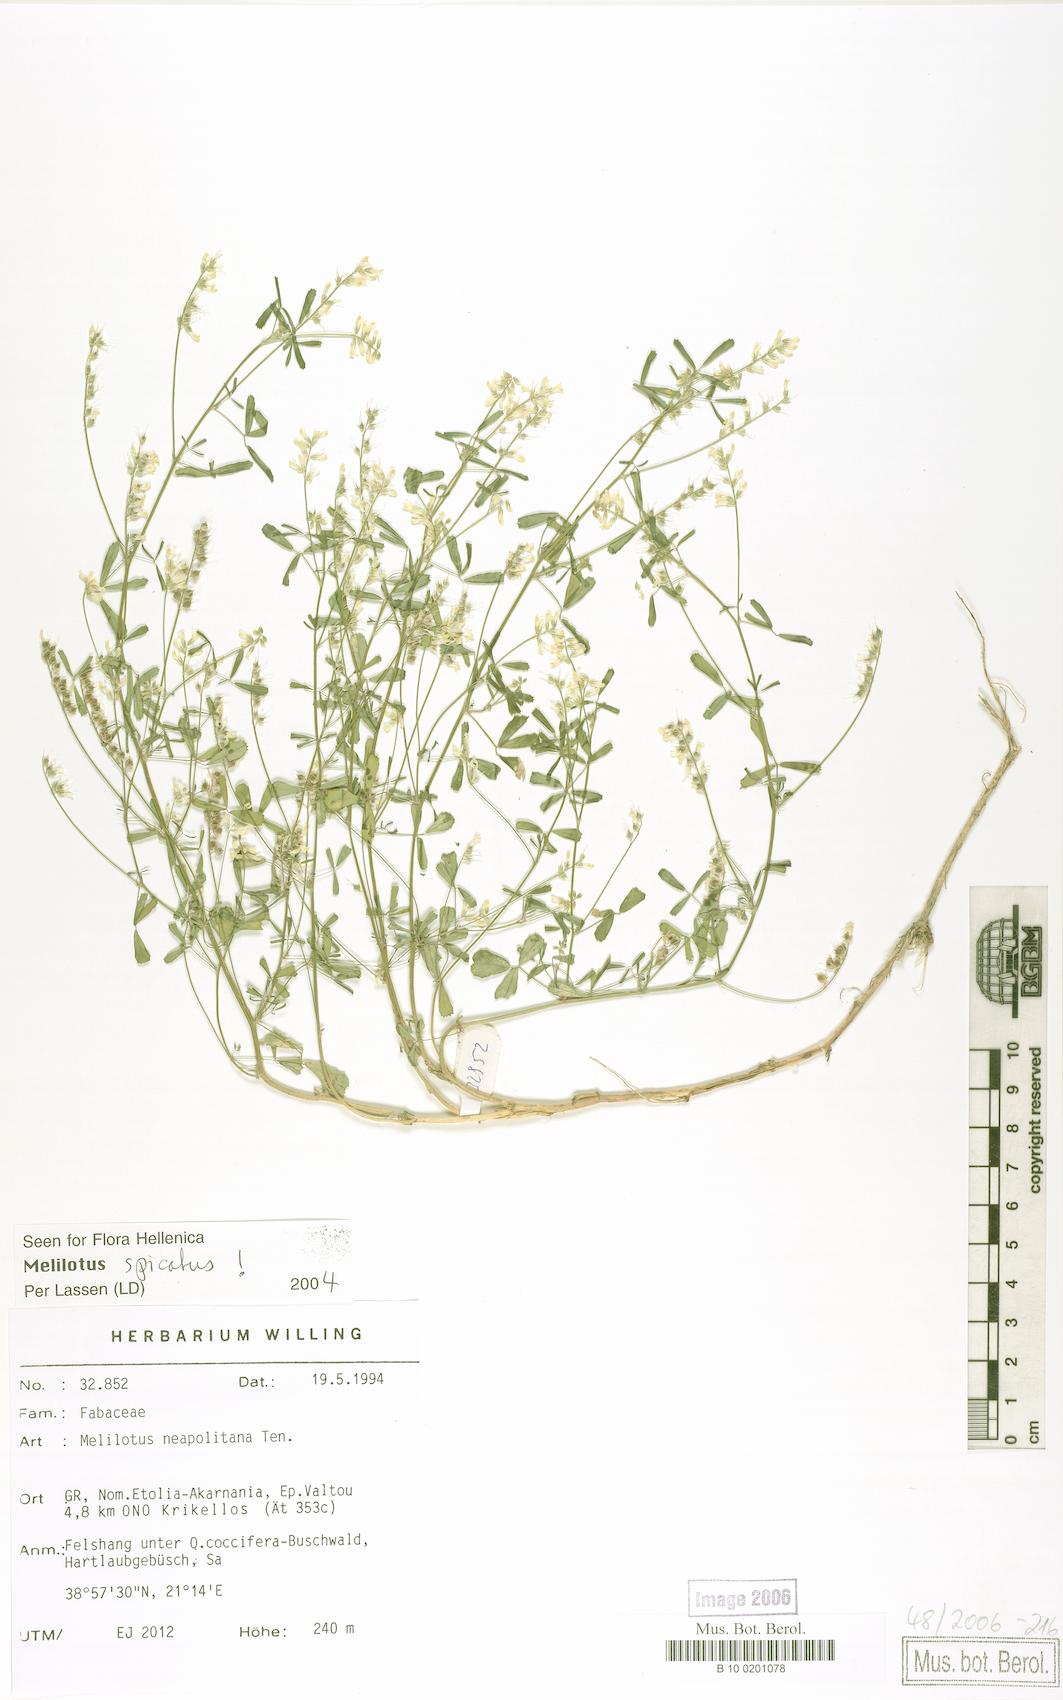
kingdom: Plantae
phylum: Tracheophyta
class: Magnoliopsida
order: Fabales
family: Fabaceae
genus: Melilotus
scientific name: Melilotus neapolitanus
